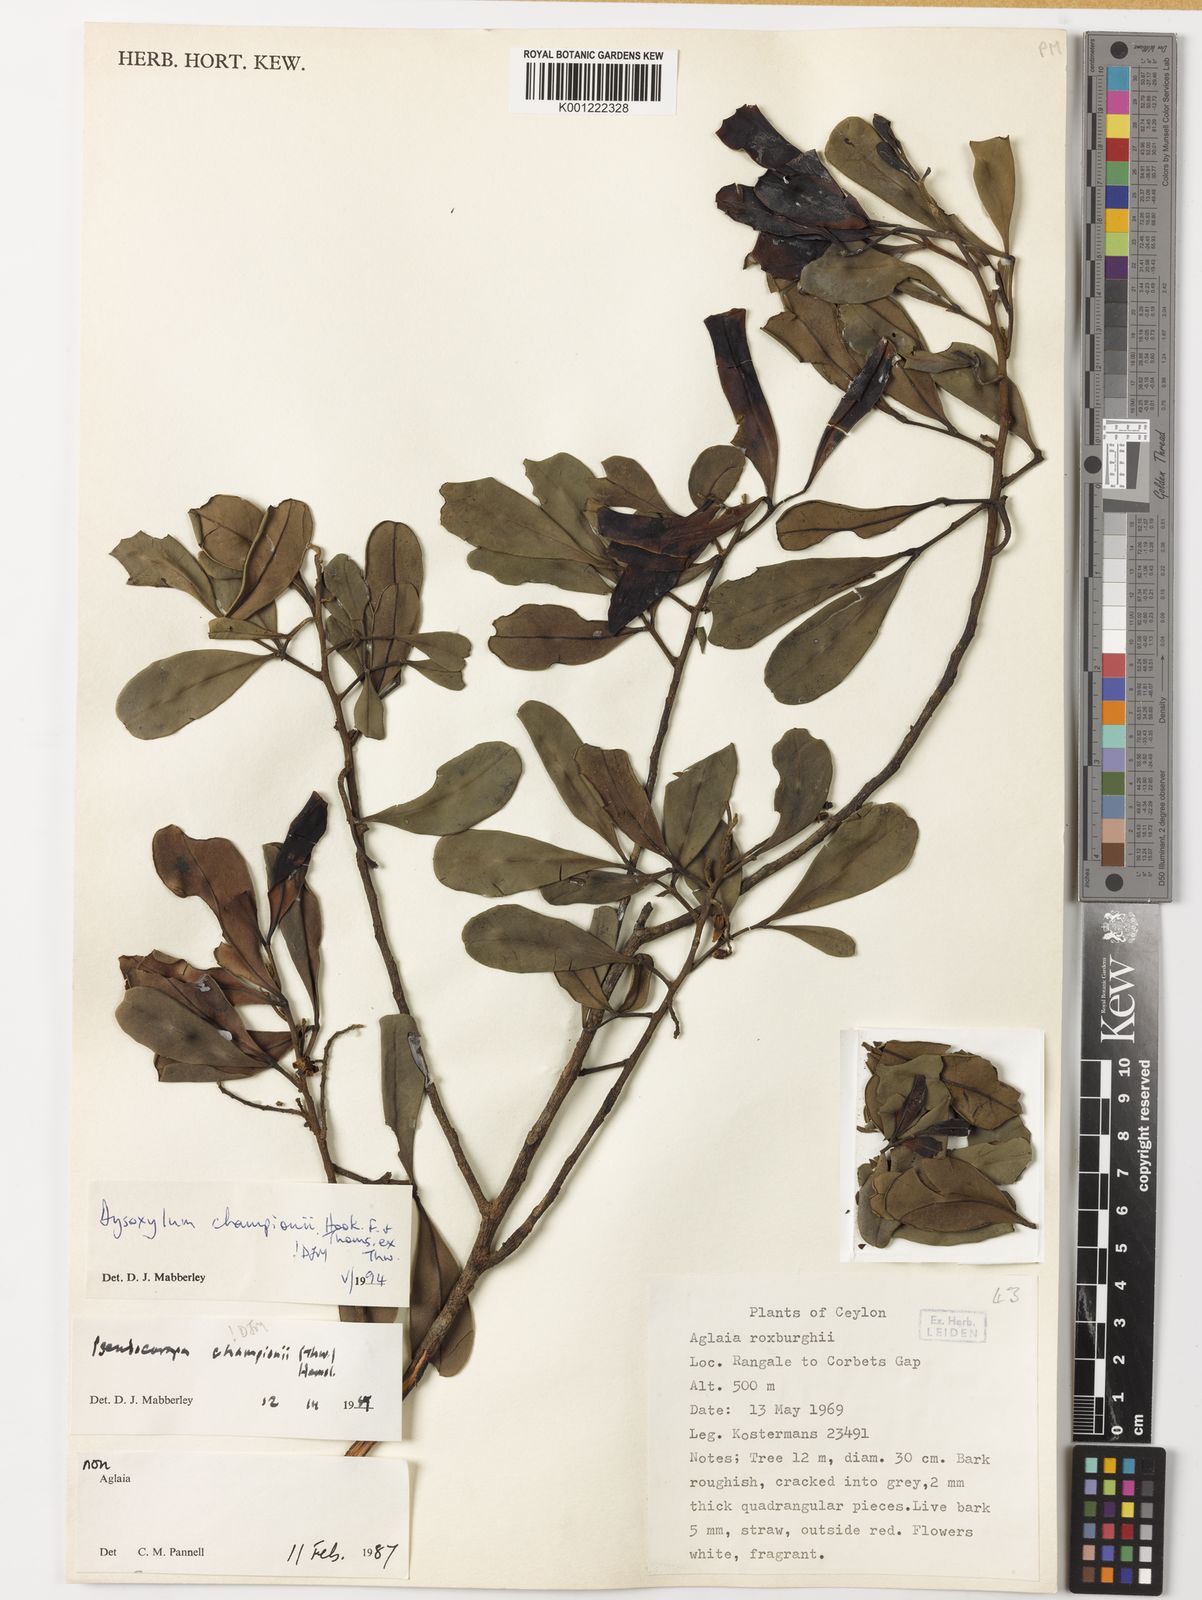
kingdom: Plantae
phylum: Tracheophyta
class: Magnoliopsida
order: Sapindales
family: Meliaceae
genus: Pseudocarapa
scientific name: Pseudocarapa championii
